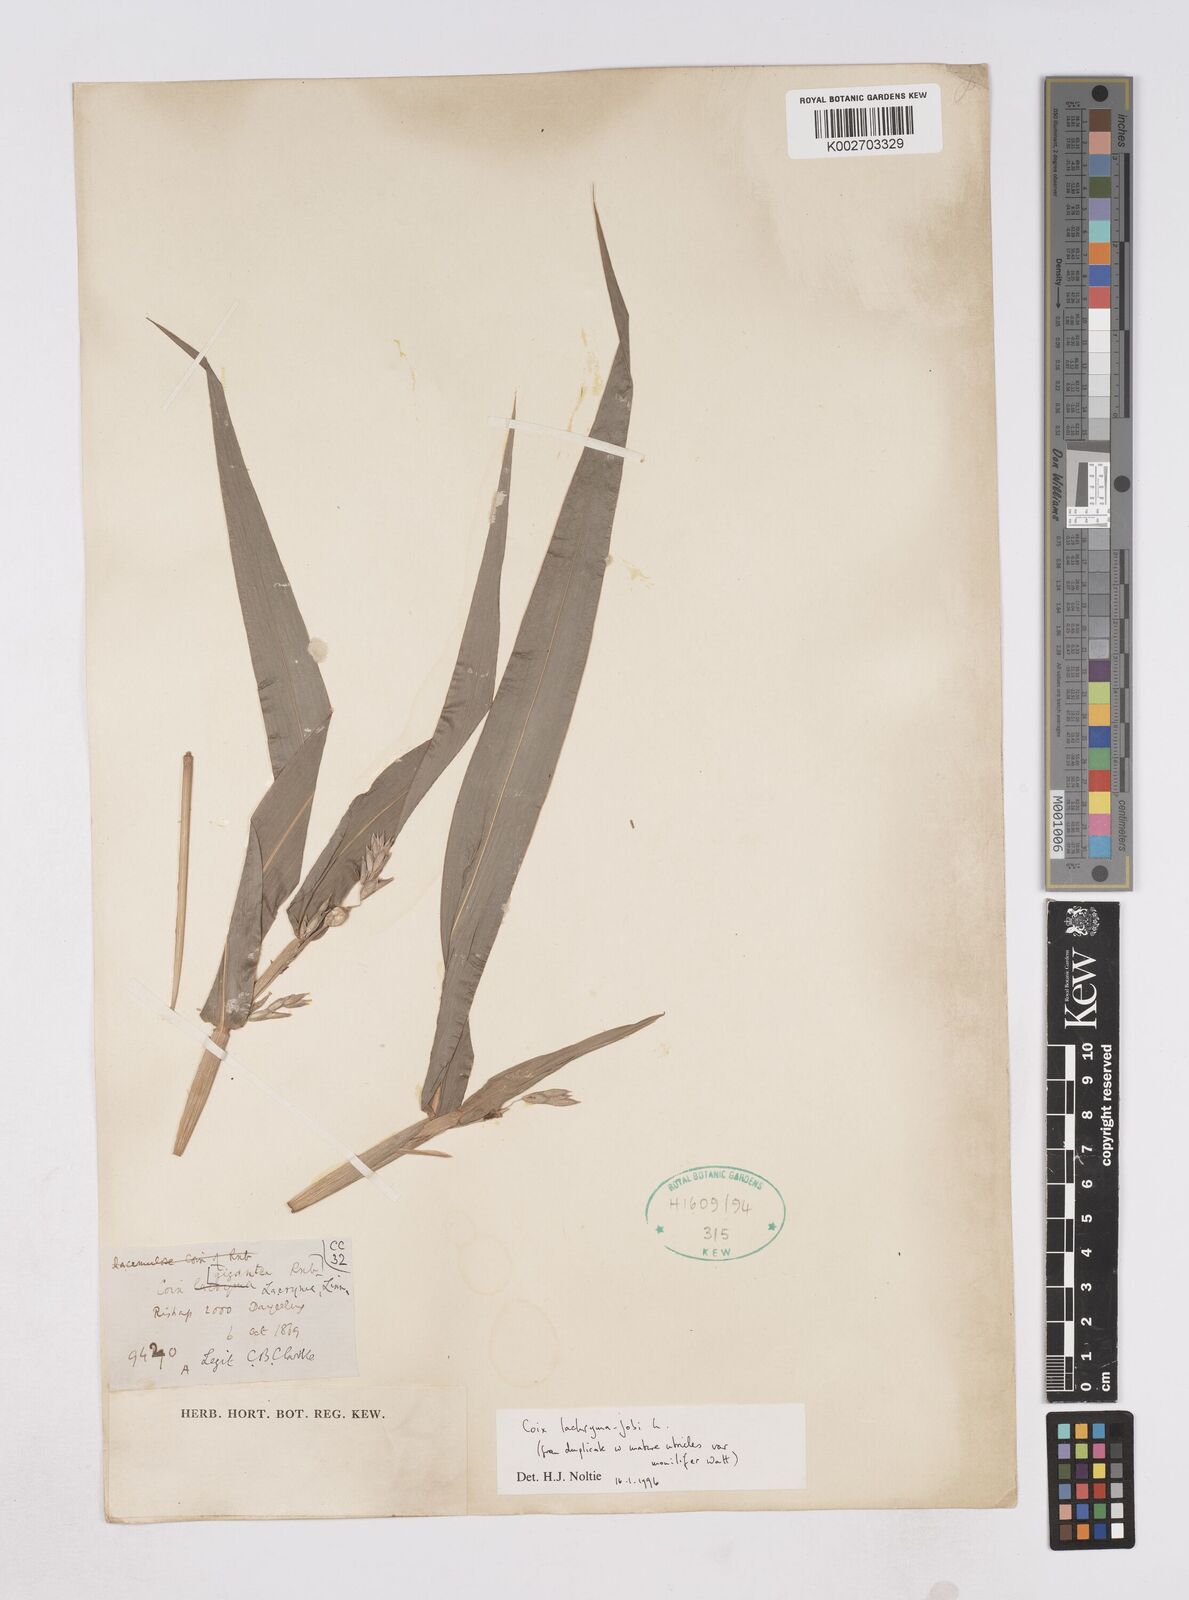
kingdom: Plantae
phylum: Tracheophyta
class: Liliopsida
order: Poales
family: Poaceae
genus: Coix
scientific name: Coix lacryma-jobi
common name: Job's tears
